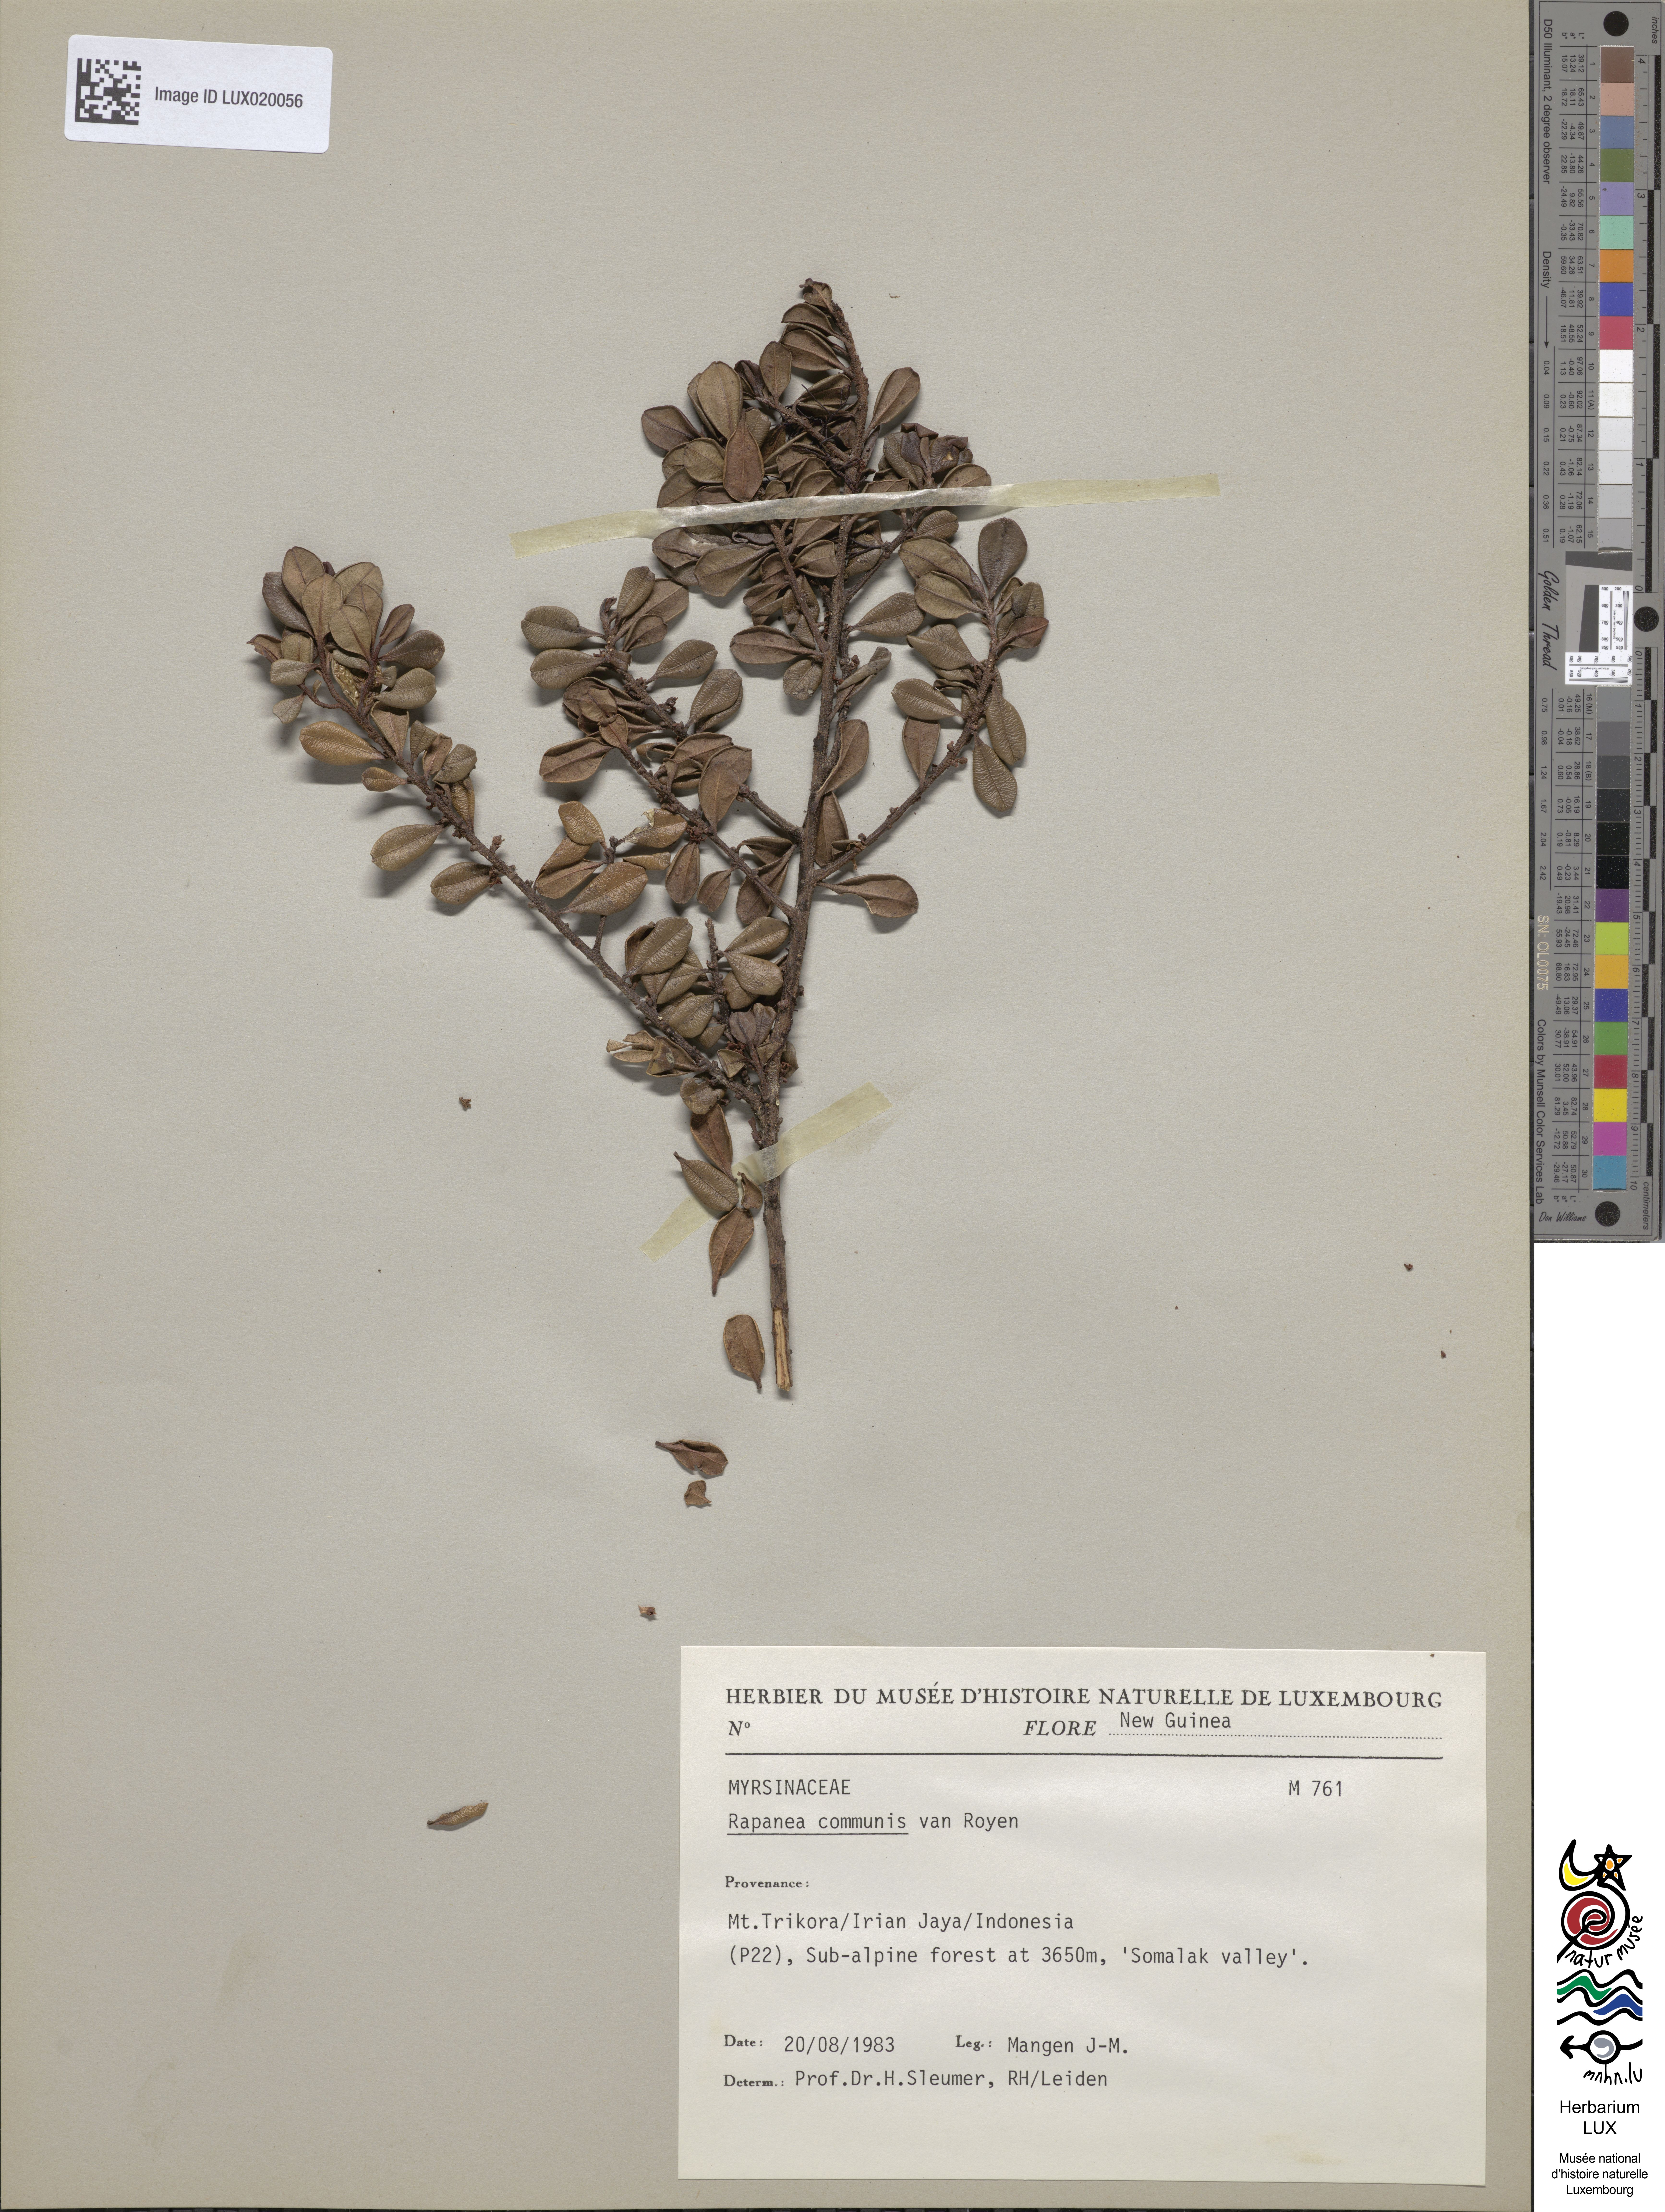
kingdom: Plantae
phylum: Tracheophyta
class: Magnoliopsida
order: Ericales
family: Primulaceae
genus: Myrsine
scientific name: Myrsine cacuminum
